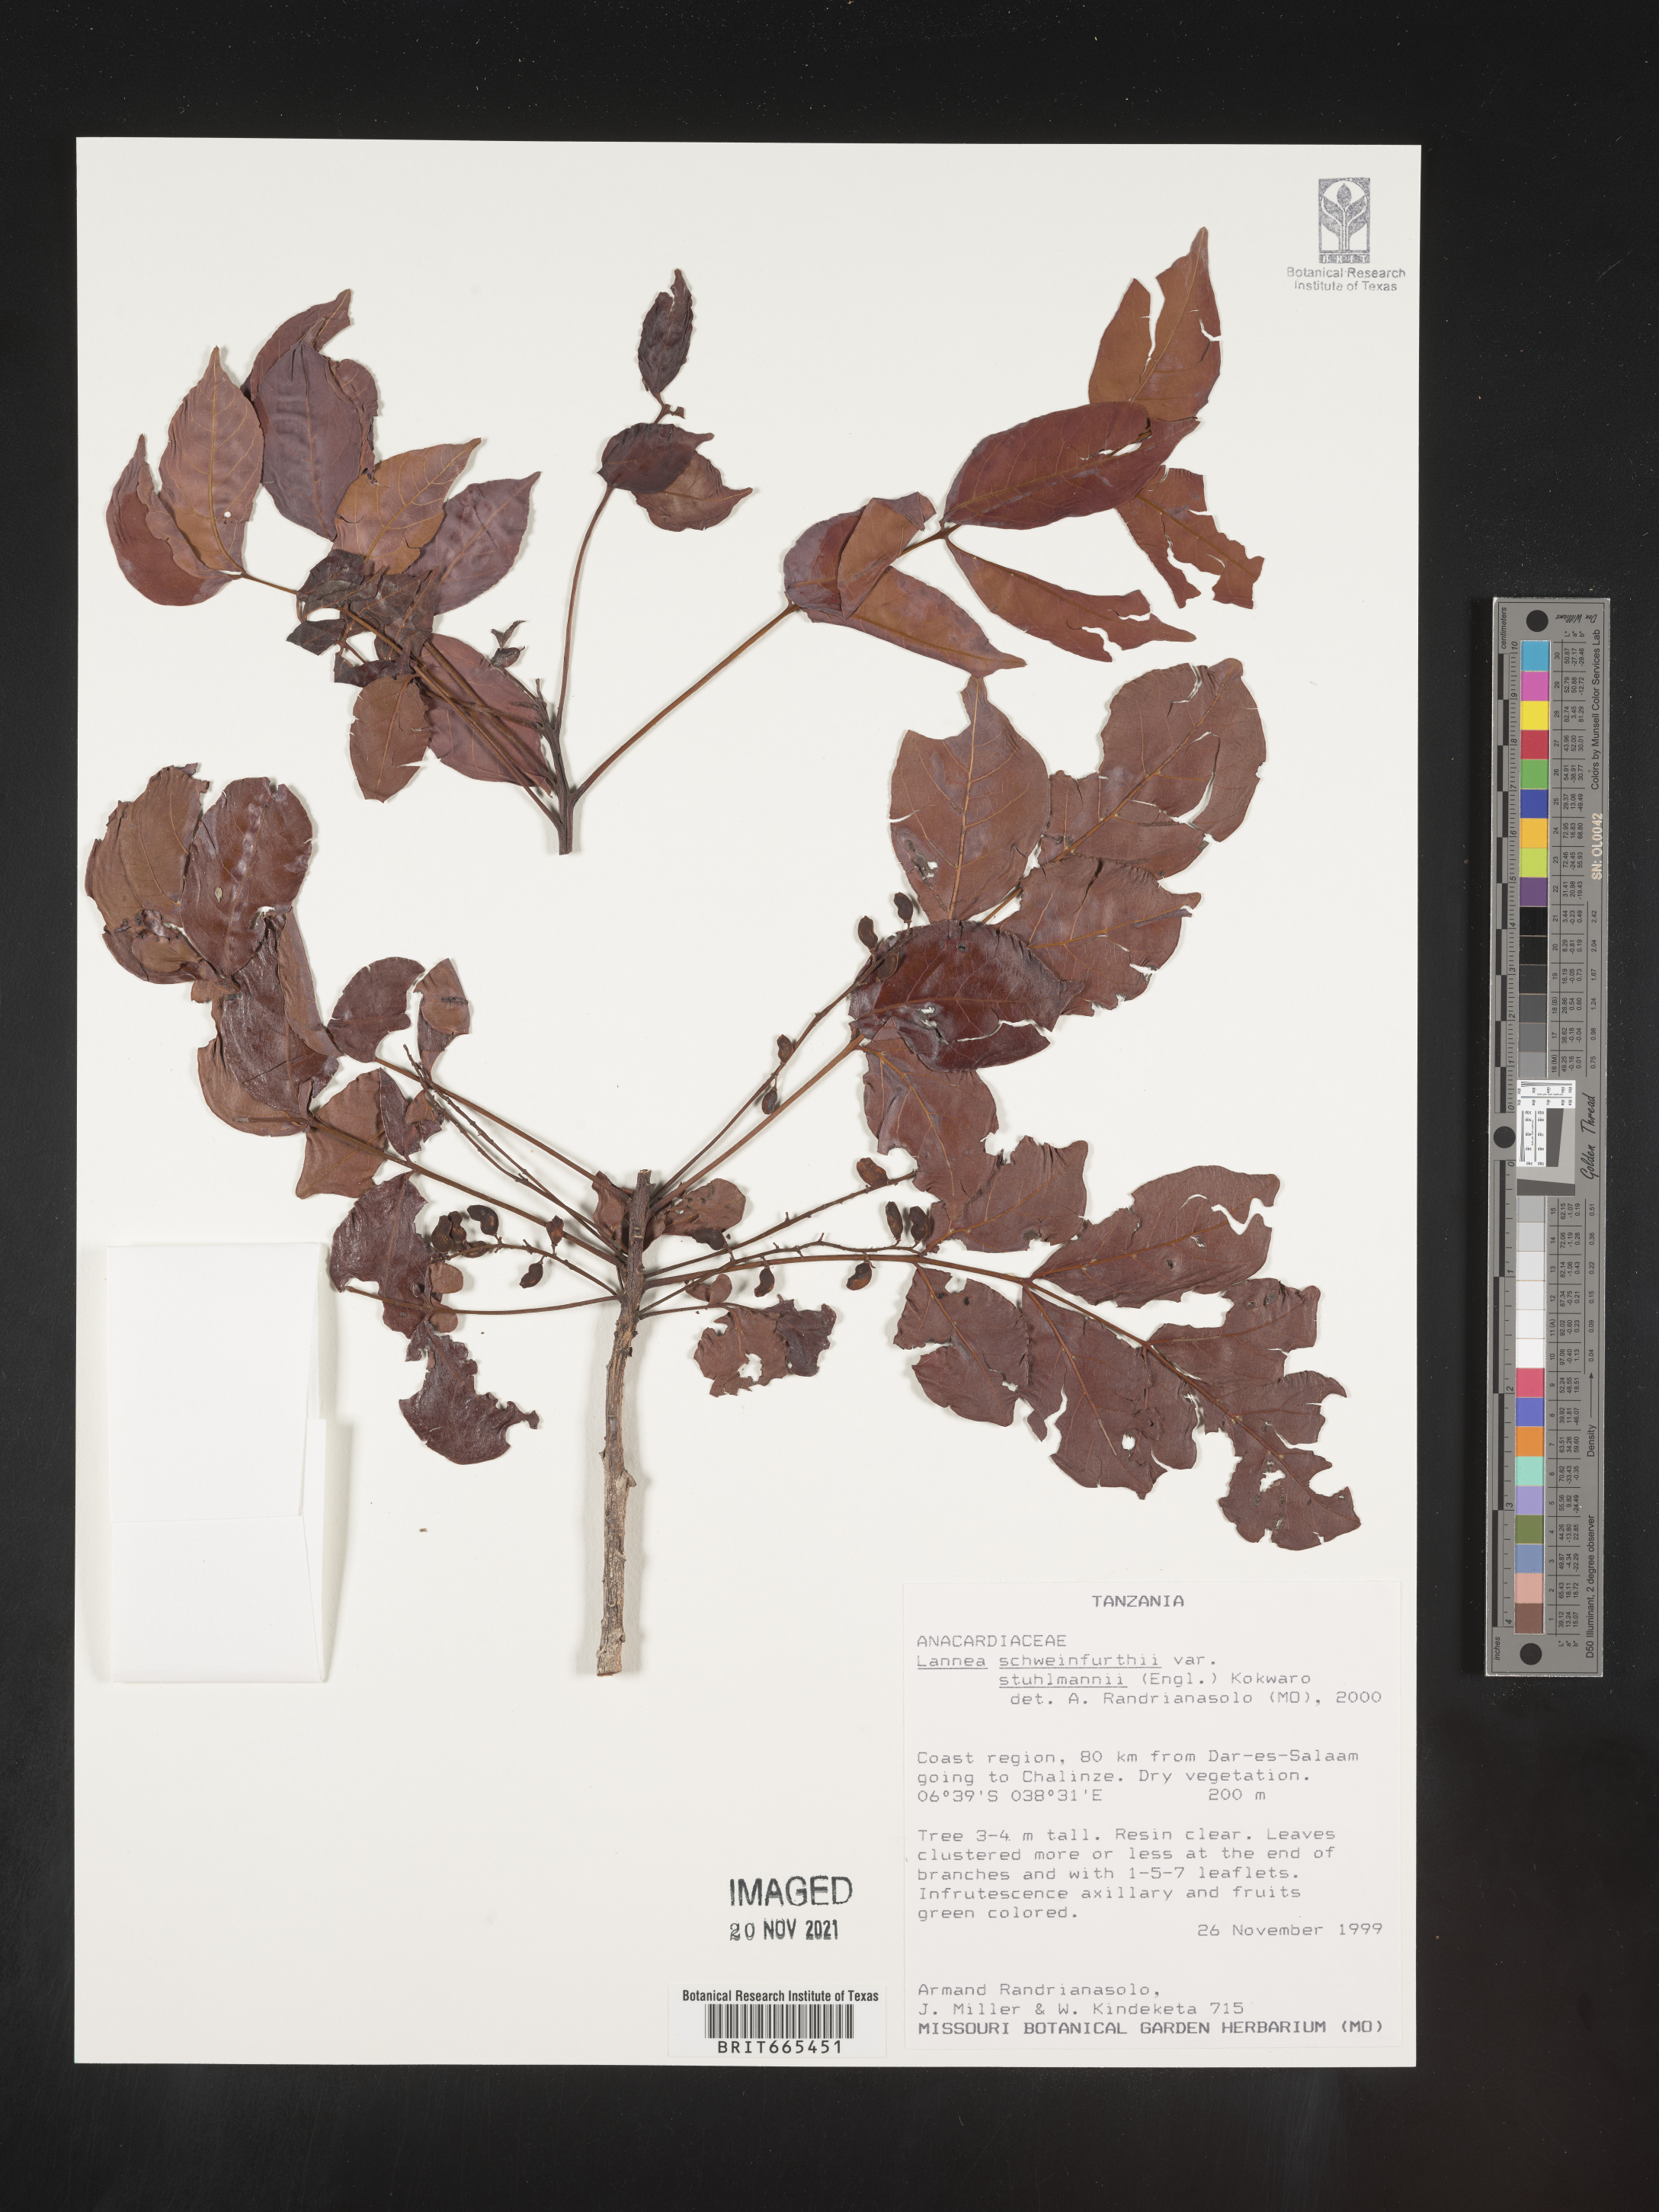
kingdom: Plantae
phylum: Tracheophyta
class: Magnoliopsida
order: Sapindales
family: Anacardiaceae
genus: Lannea
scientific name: Lannea schweinfurthii
